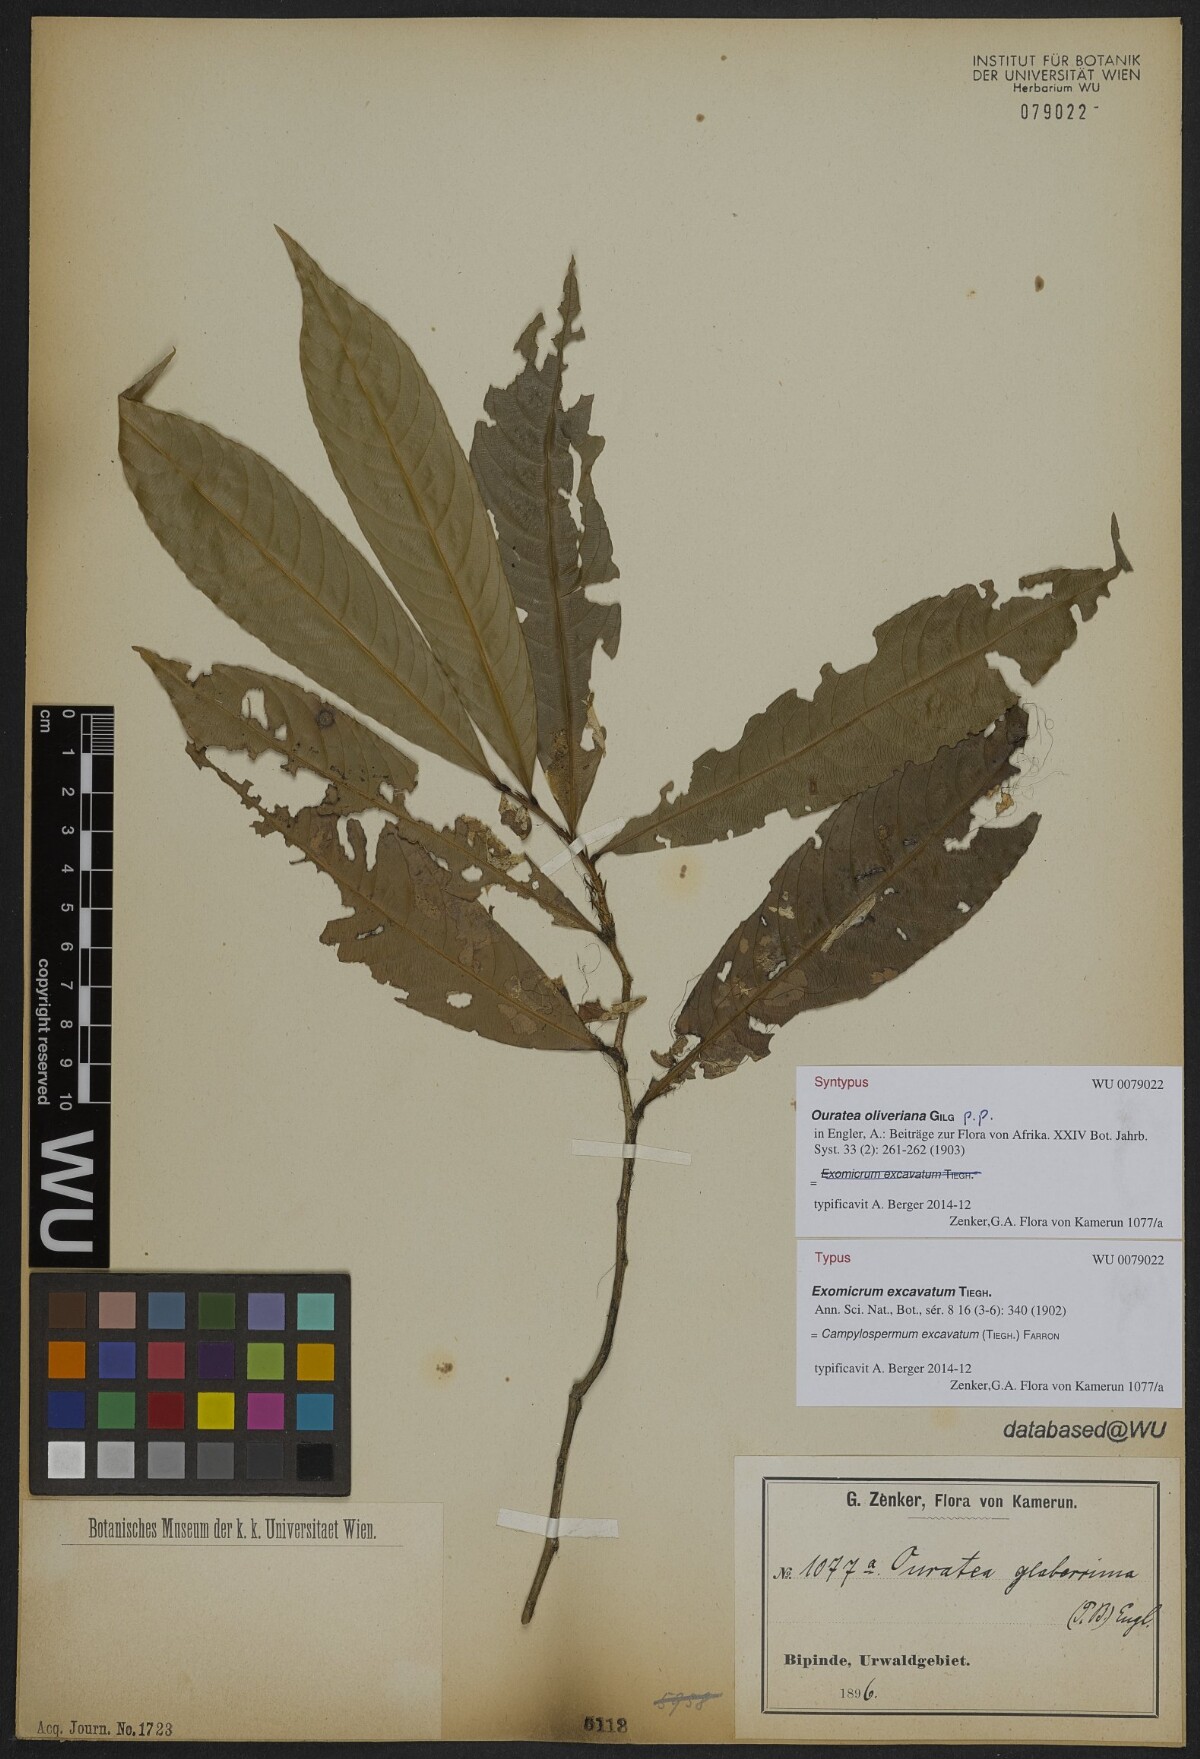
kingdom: Plantae
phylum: Tracheophyta
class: Magnoliopsida
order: Malpighiales
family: Ochnaceae
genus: Campylospermum
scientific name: Campylospermum excavatum
